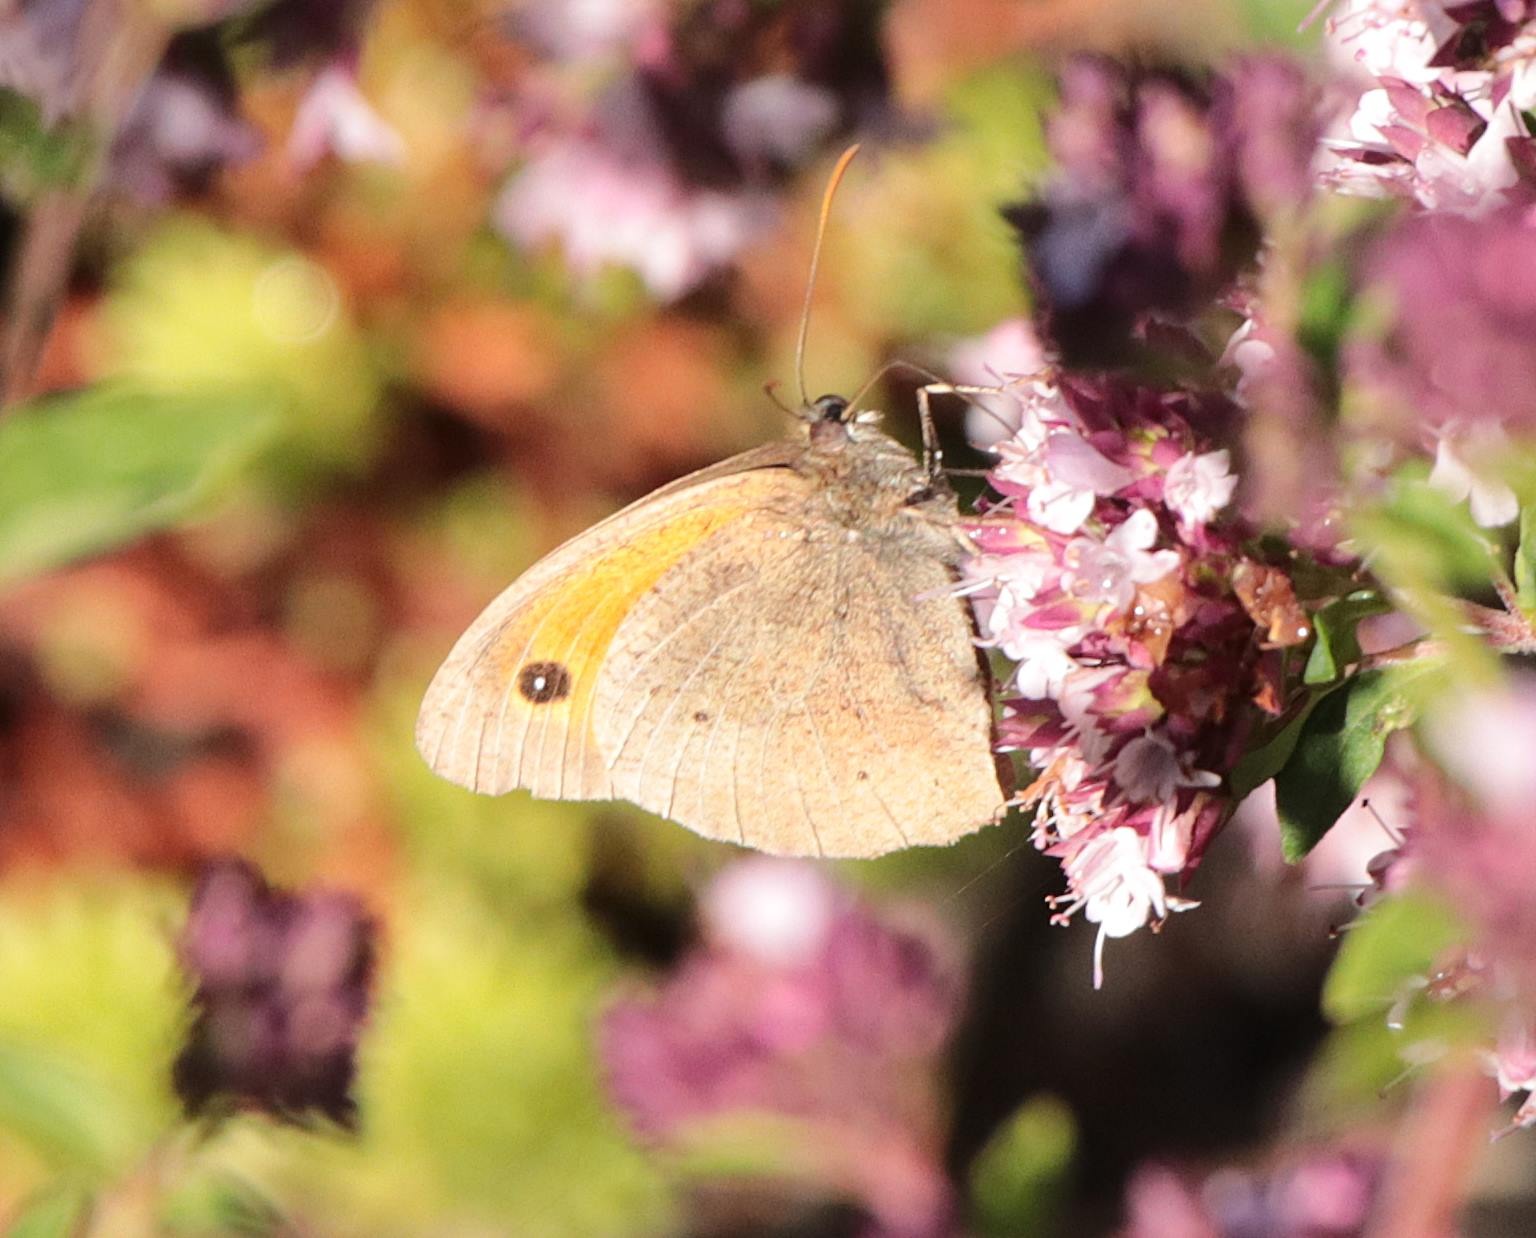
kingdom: Animalia
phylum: Arthropoda
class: Insecta
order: Lepidoptera
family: Nymphalidae
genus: Maniola
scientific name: Maniola jurtina
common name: Græsrandøje
